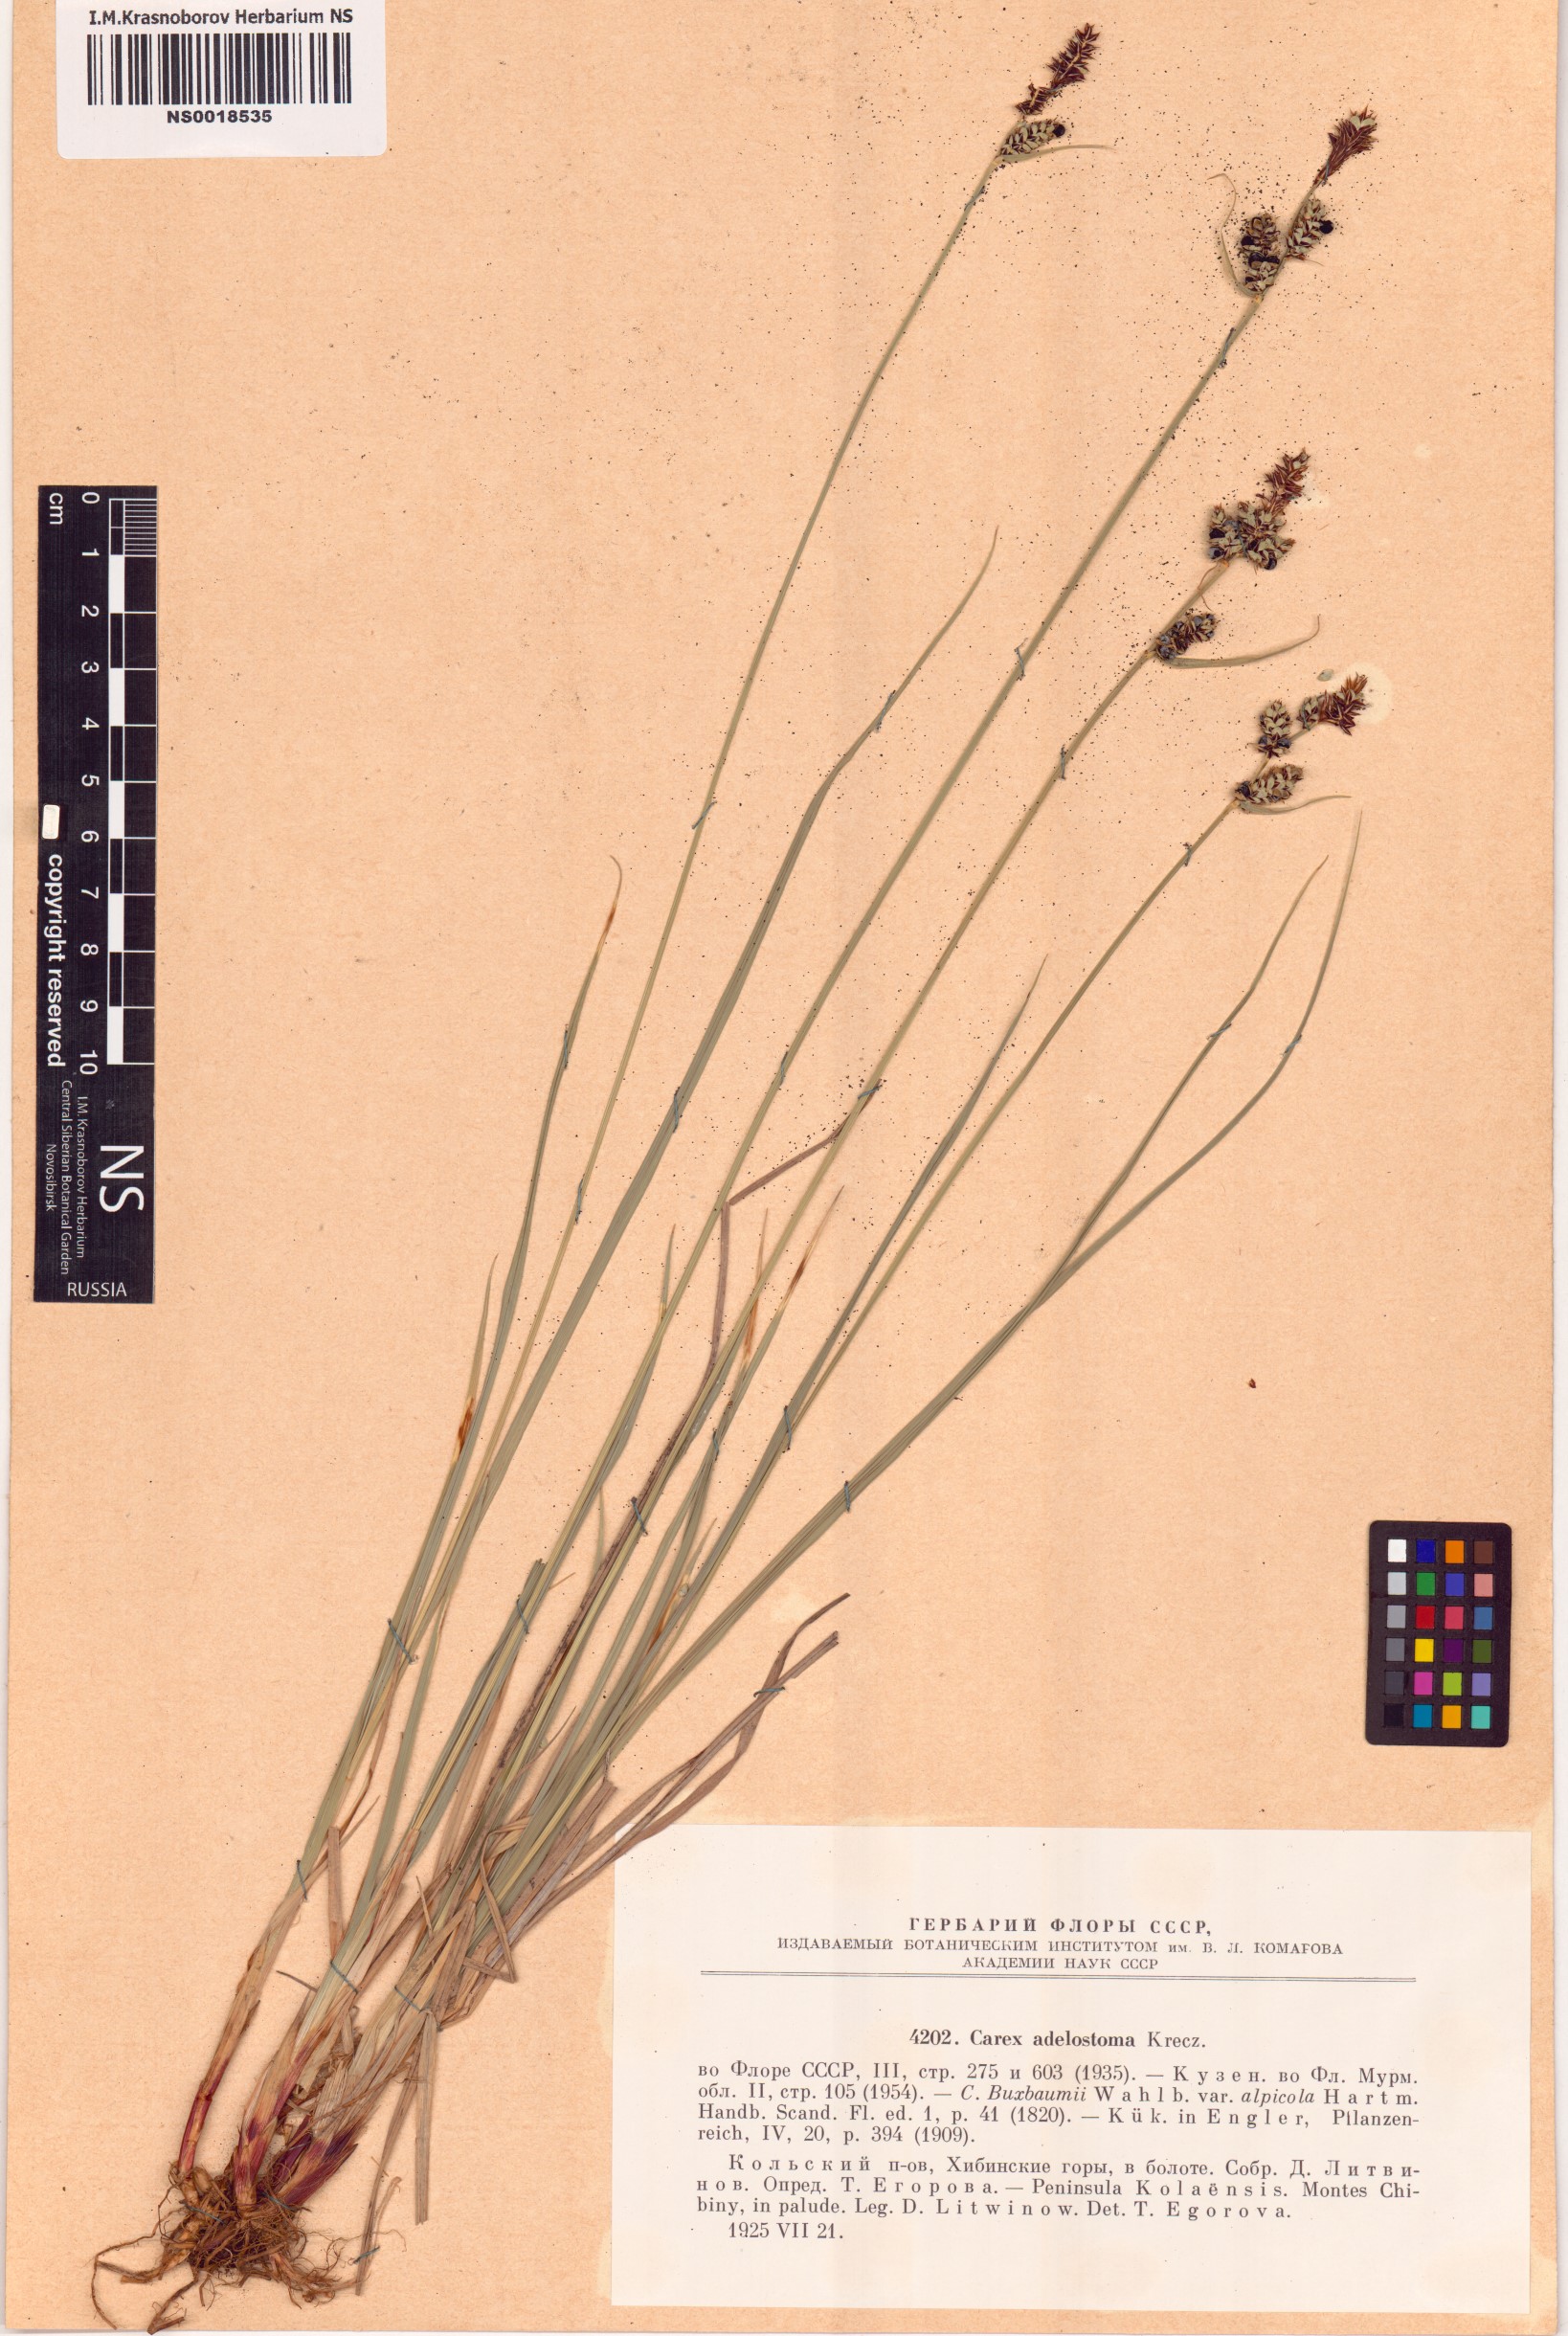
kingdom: Plantae
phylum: Tracheophyta
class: Liliopsida
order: Poales
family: Cyperaceae
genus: Carex
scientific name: Carex adelostoma
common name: Circumpolar sedge
